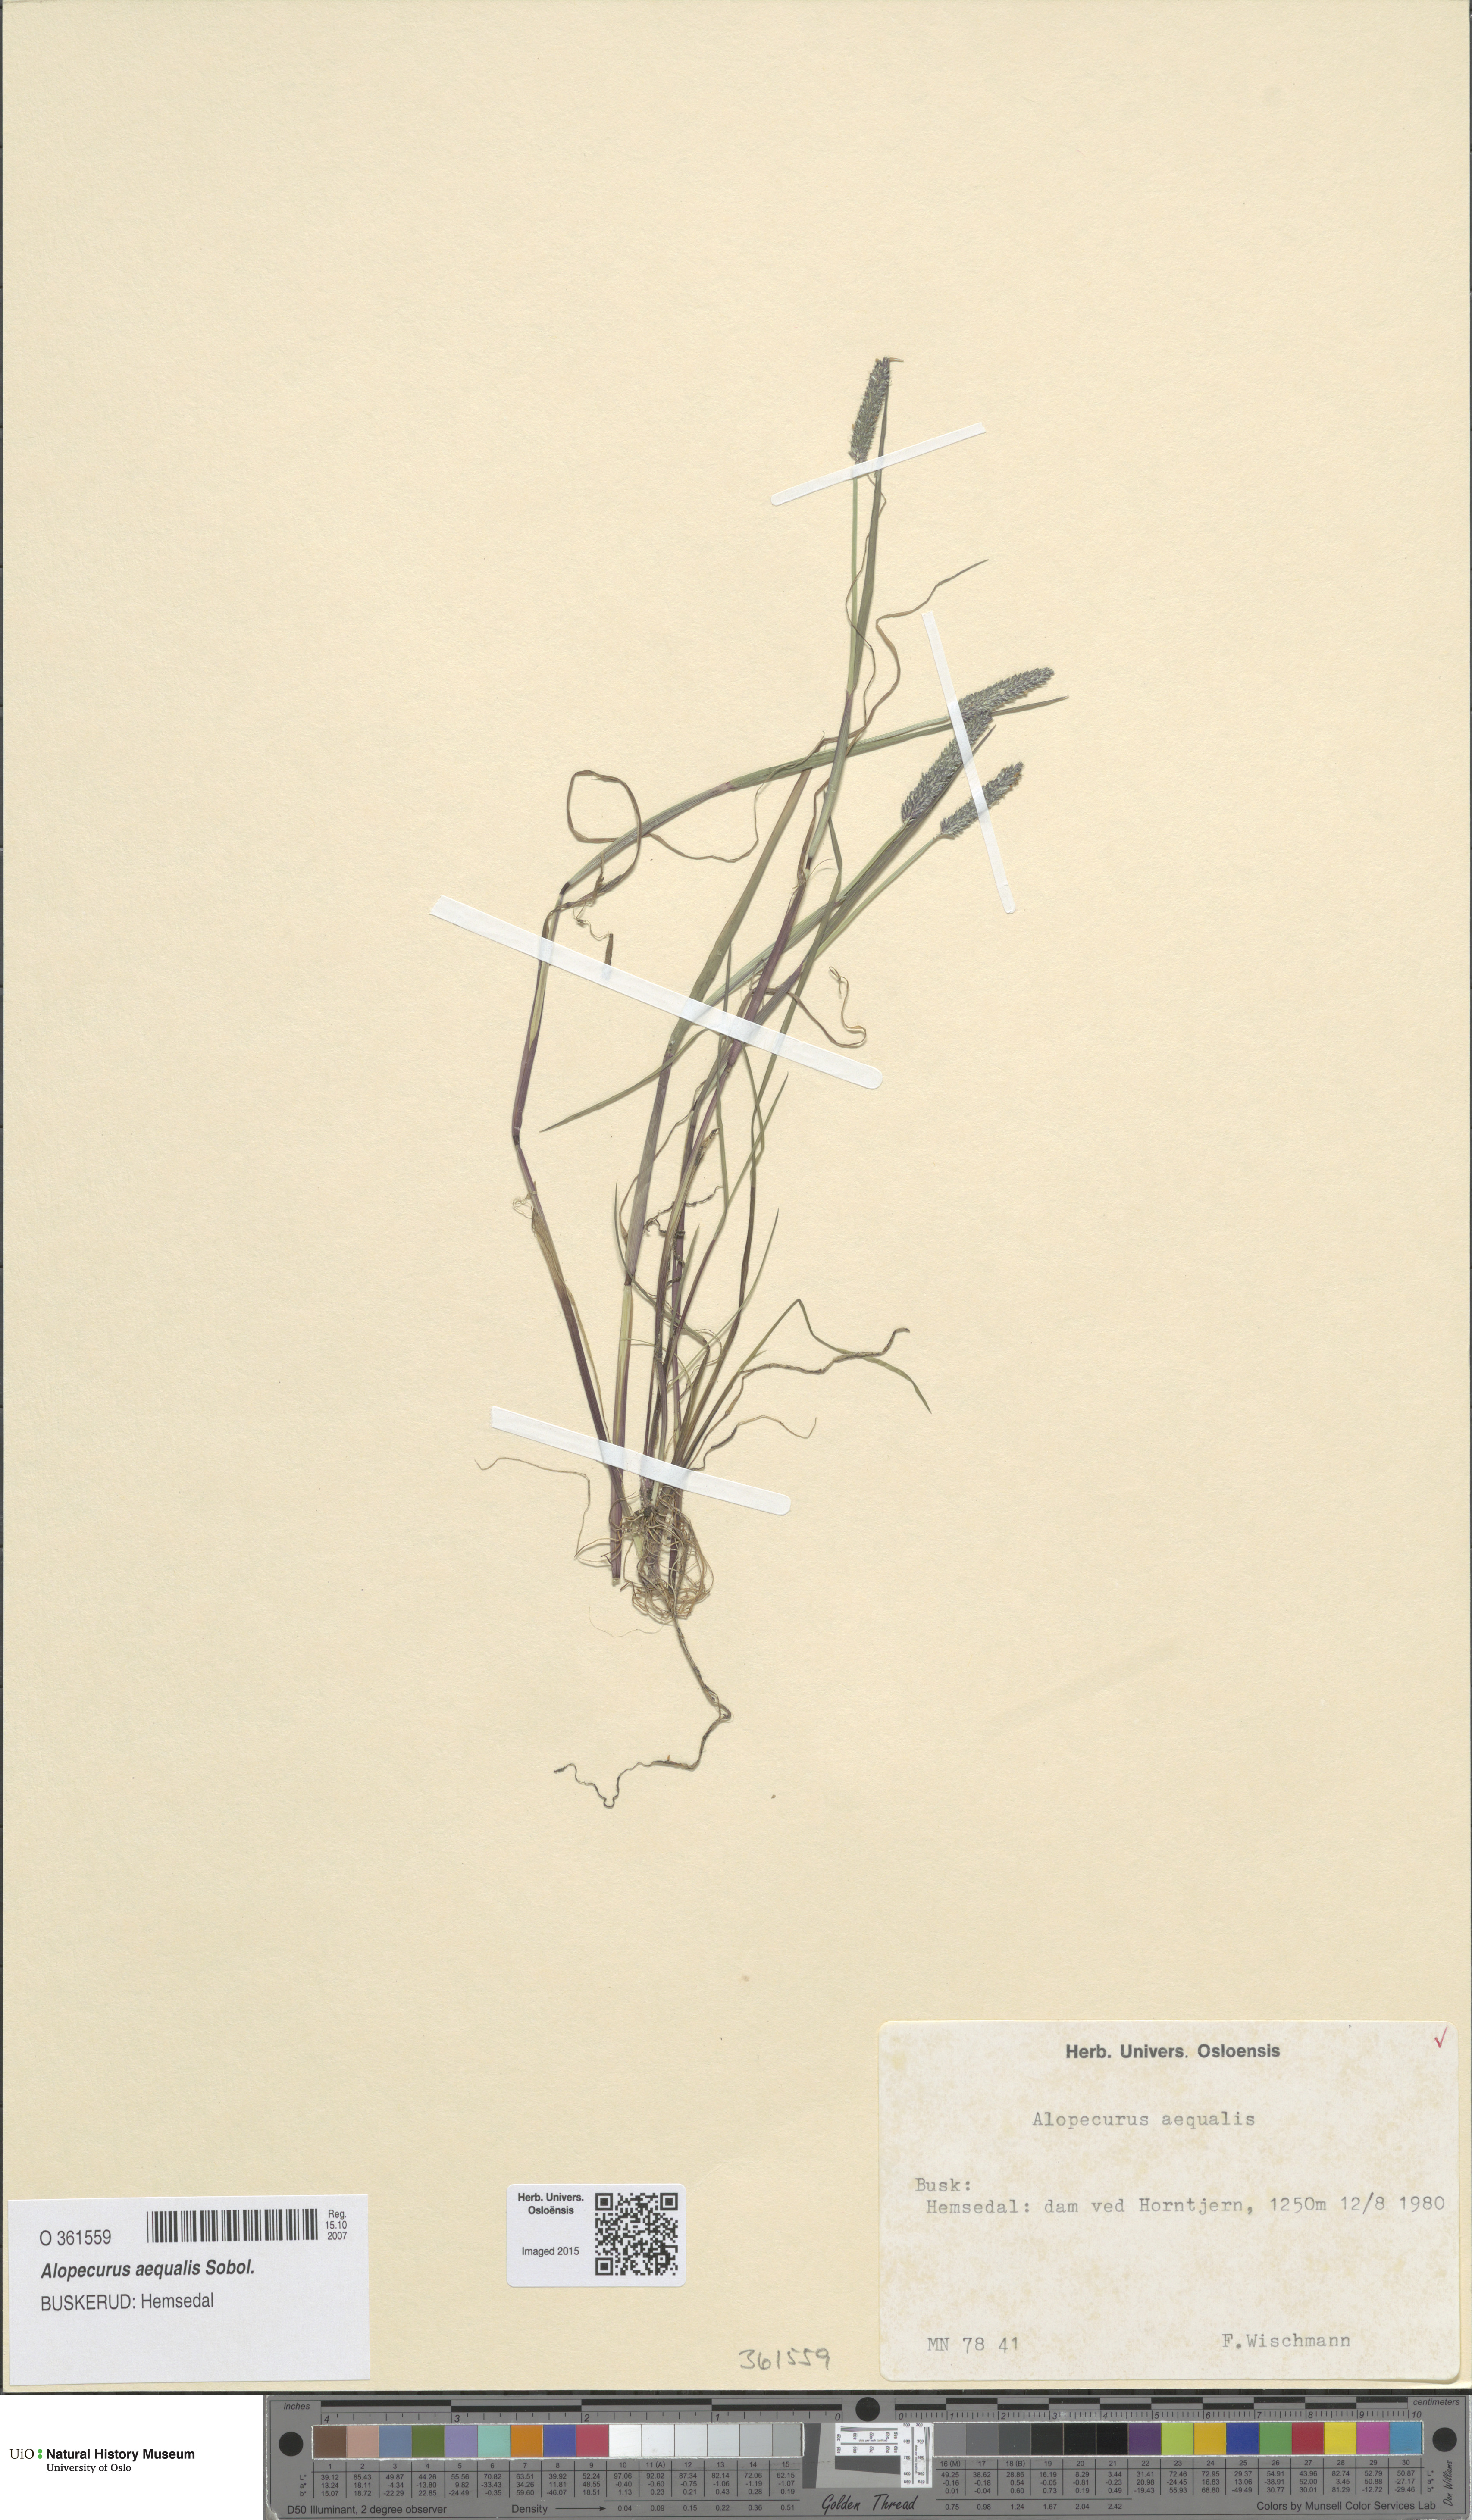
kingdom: Plantae
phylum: Tracheophyta
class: Liliopsida
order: Poales
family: Poaceae
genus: Alopecurus
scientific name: Alopecurus aequalis
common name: Orange foxtail
